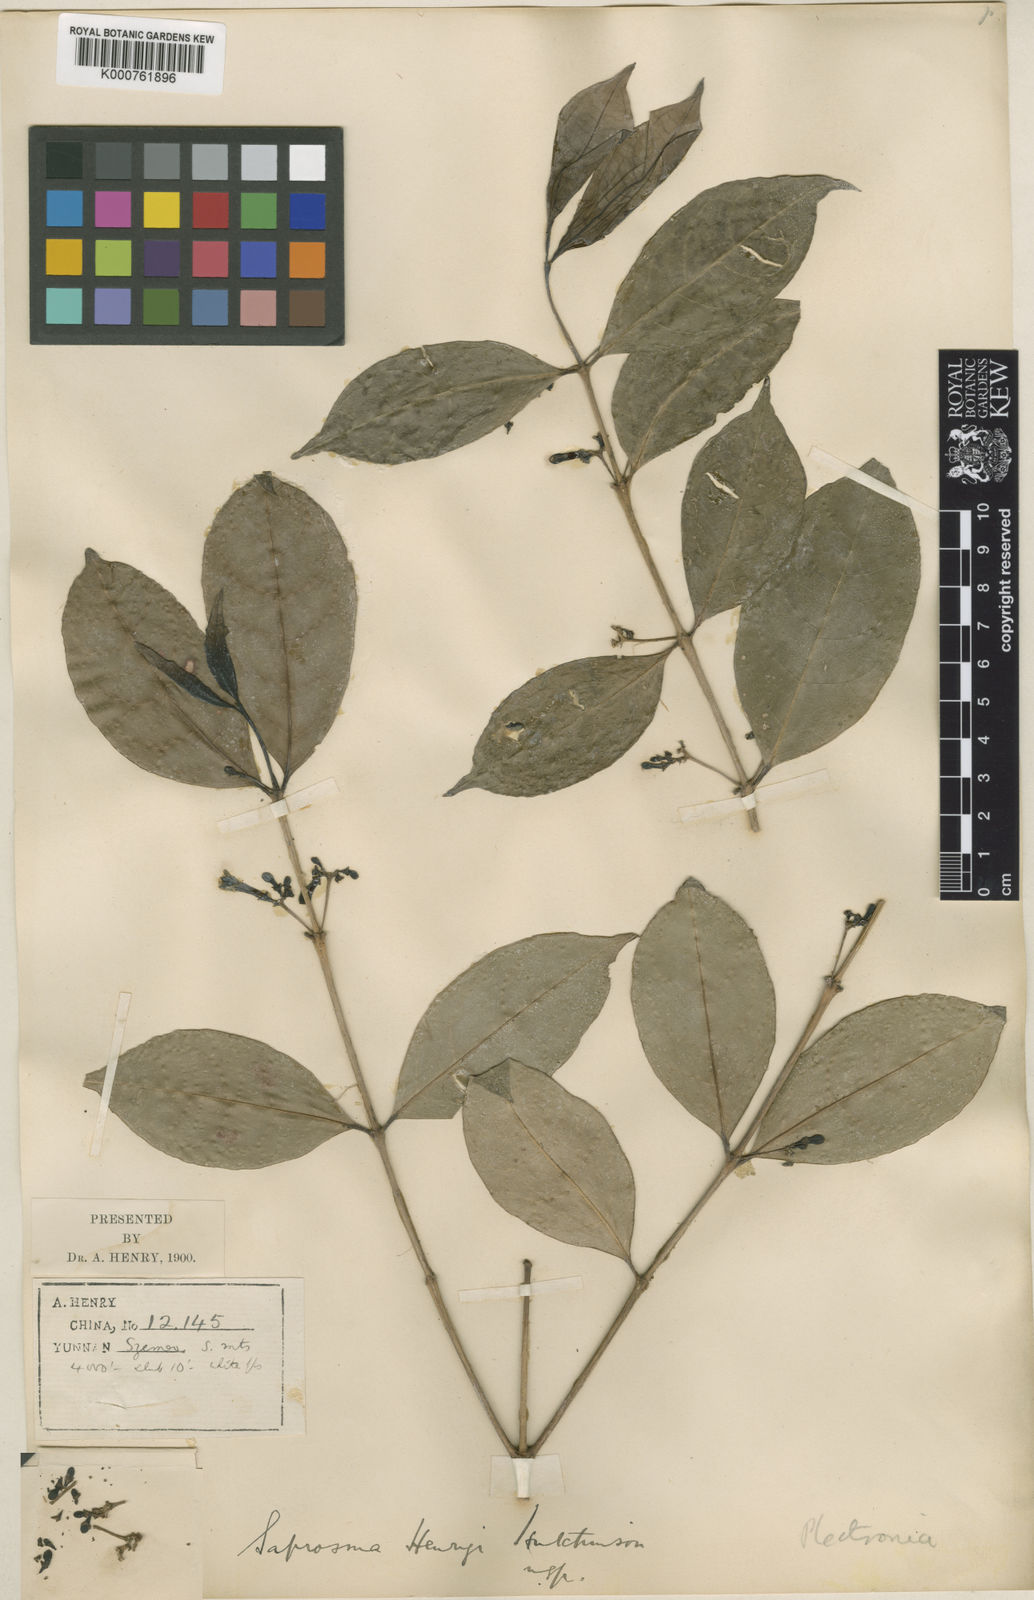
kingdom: Plantae
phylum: Tracheophyta
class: Magnoliopsida
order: Gentianales
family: Rubiaceae
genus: Saprosma
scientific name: Saprosma henryi
